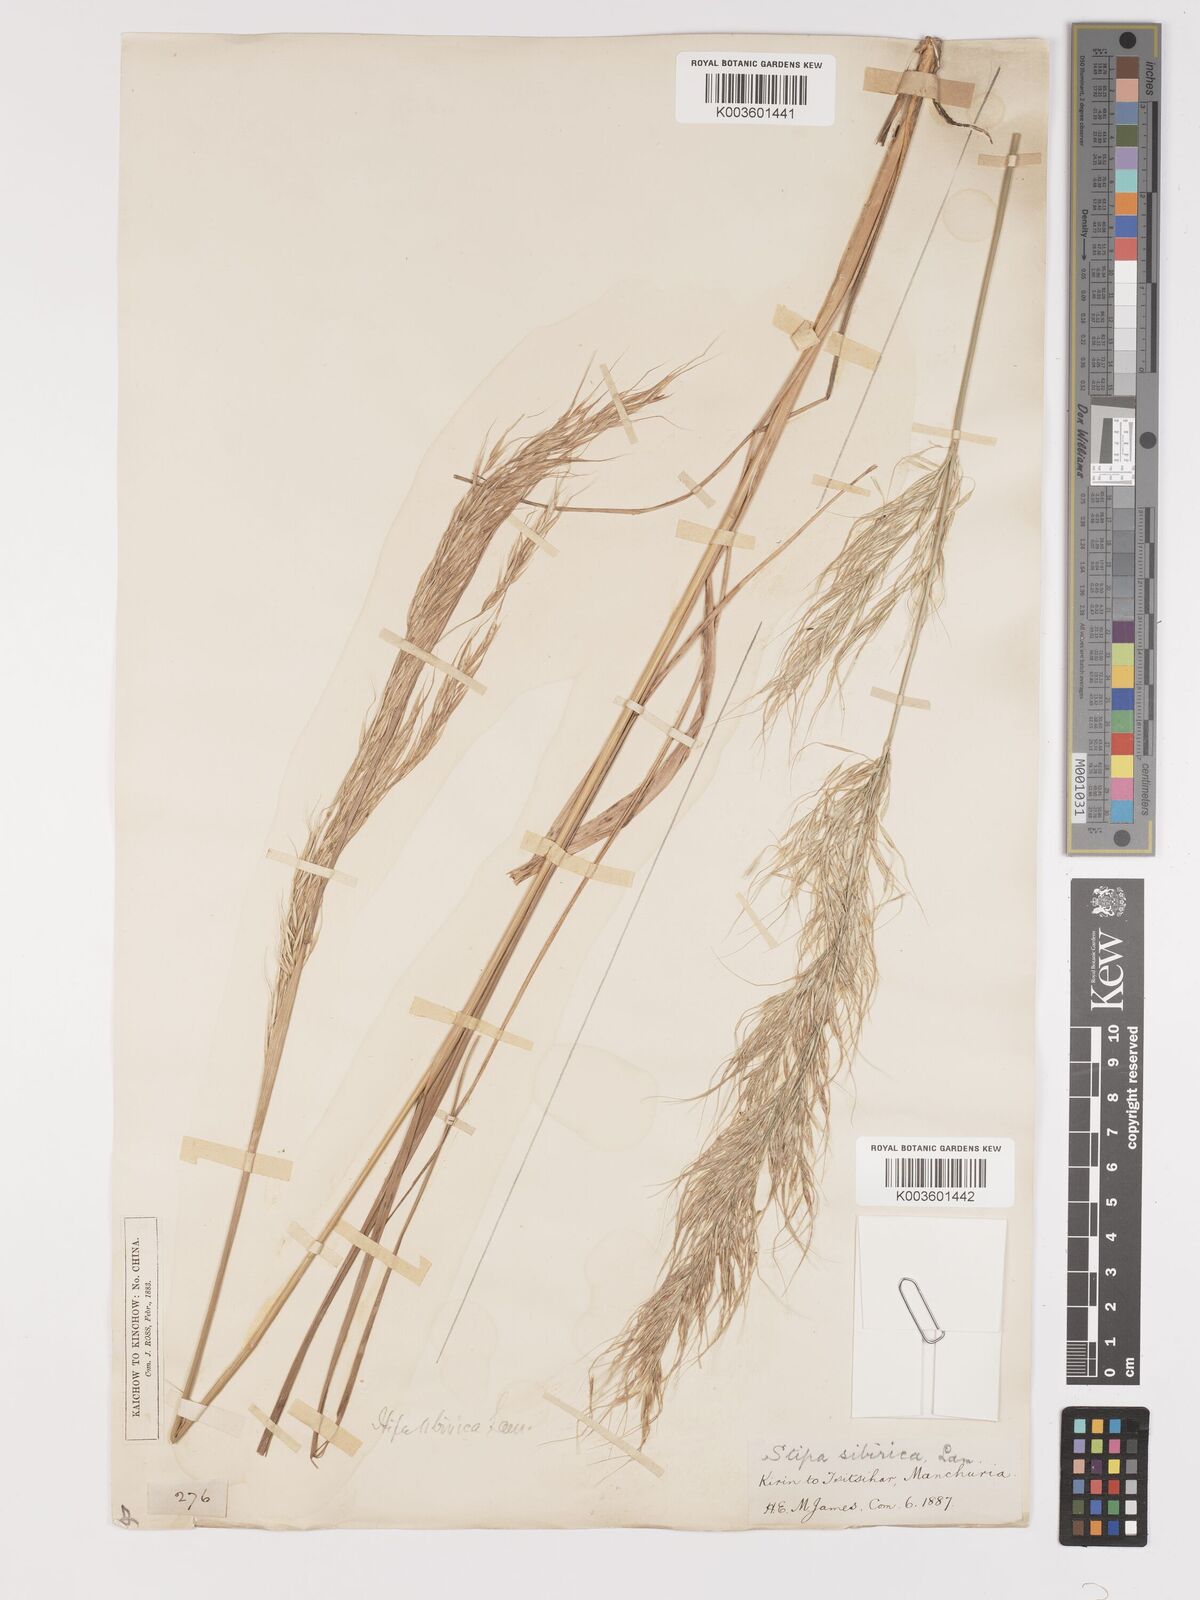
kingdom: Plantae
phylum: Tracheophyta
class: Liliopsida
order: Poales
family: Poaceae
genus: Achnatherum
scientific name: Achnatherum sibiricum
